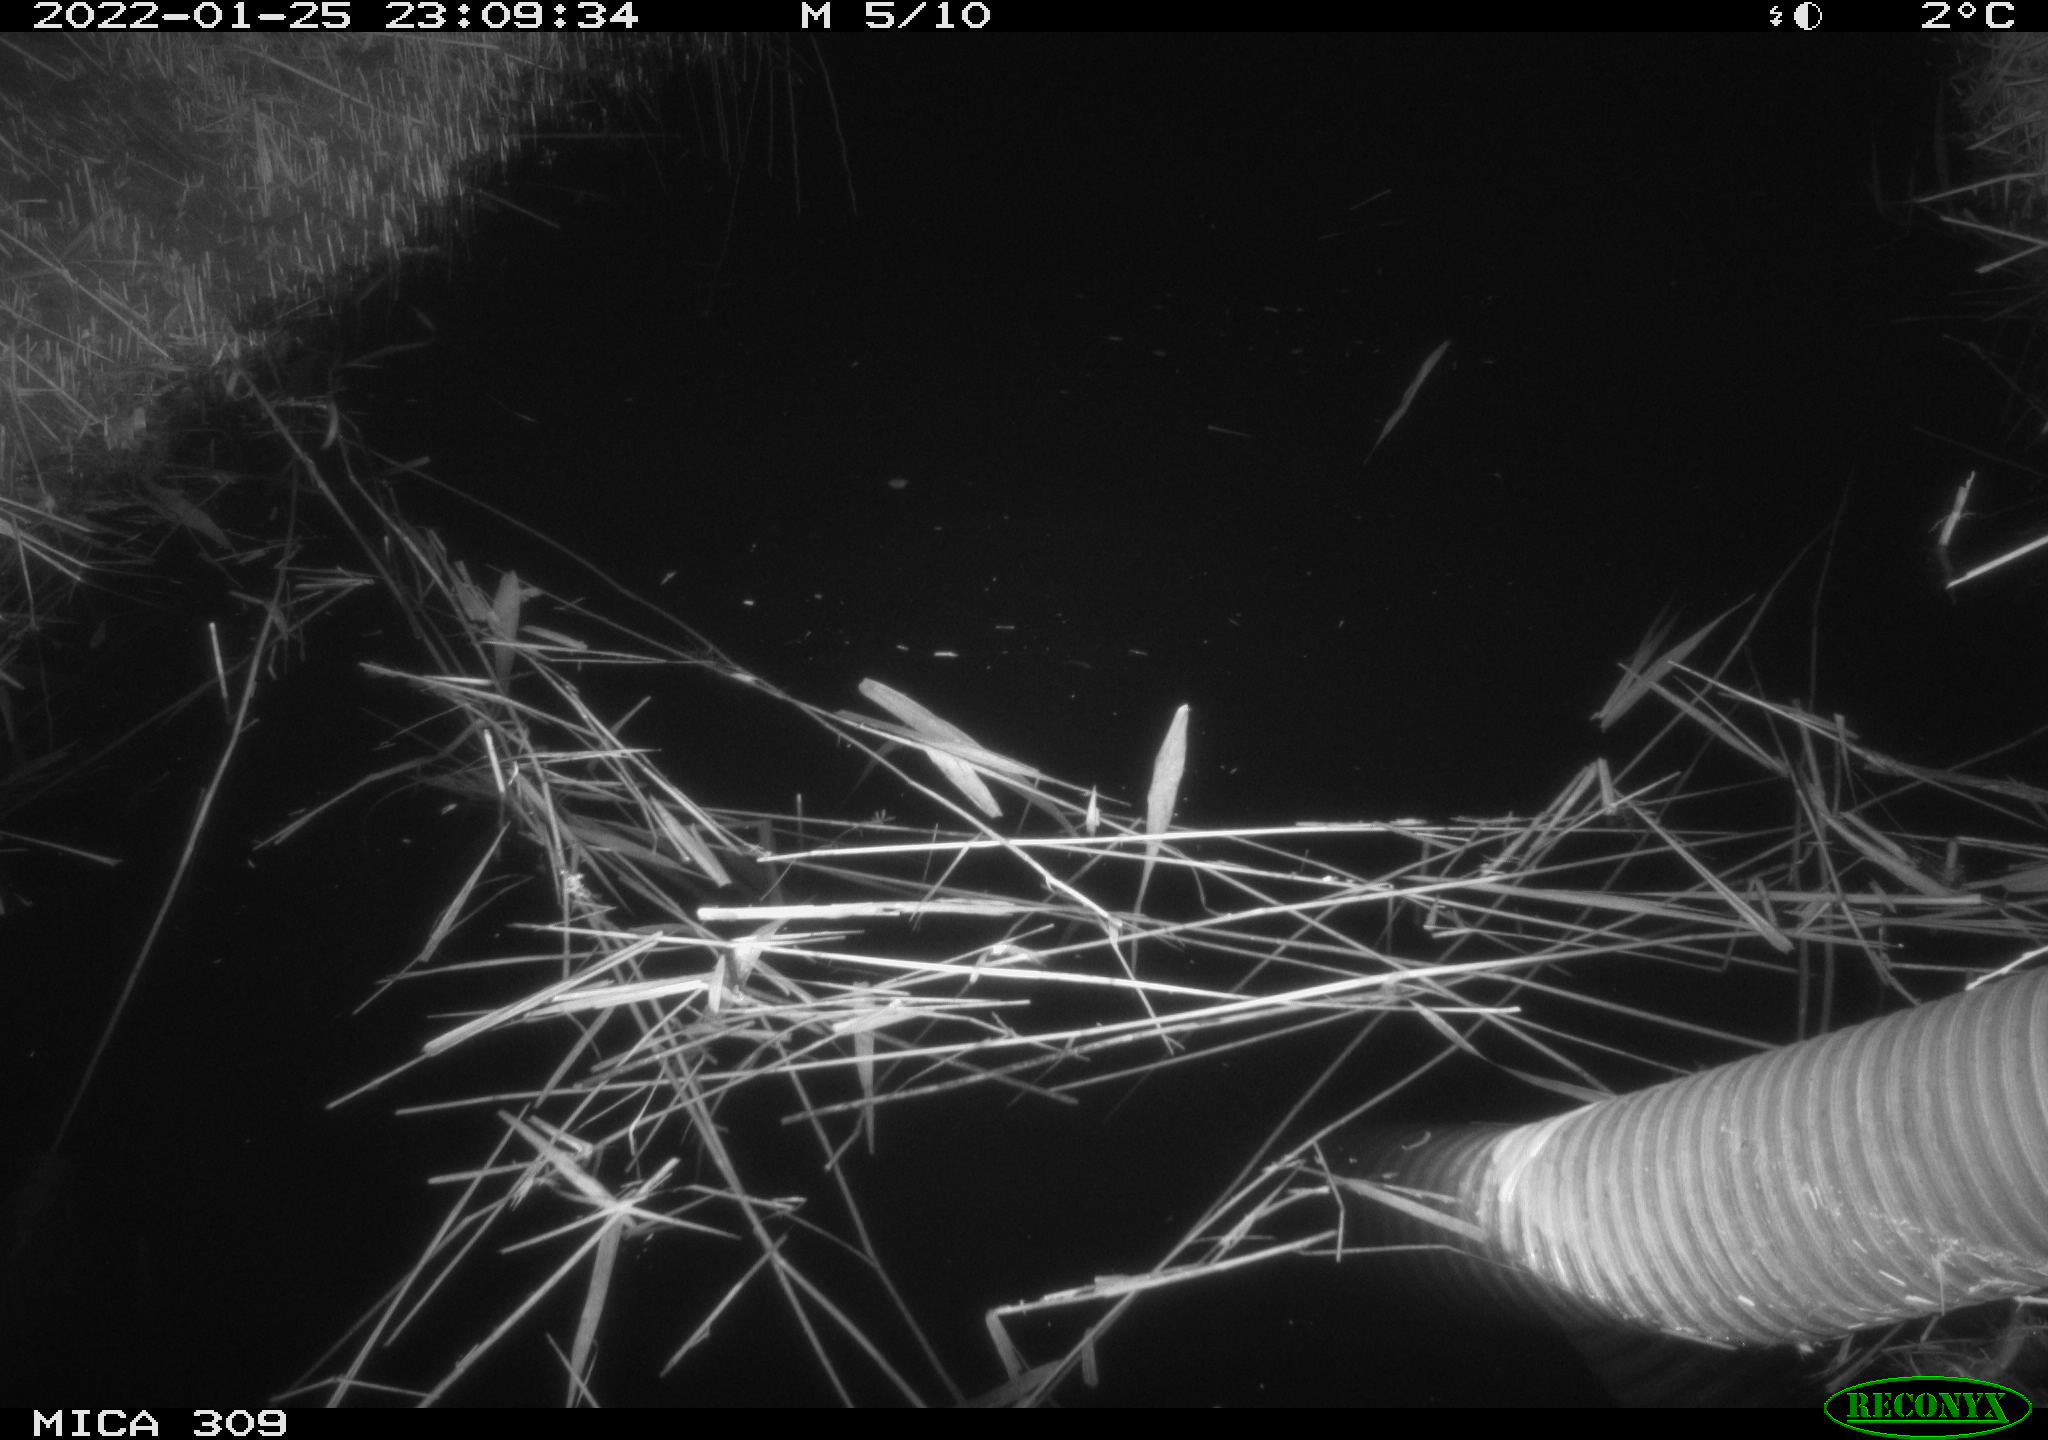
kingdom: Animalia
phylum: Chordata
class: Mammalia
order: Rodentia
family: Muridae
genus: Rattus
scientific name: Rattus norvegicus
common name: Brown rat
